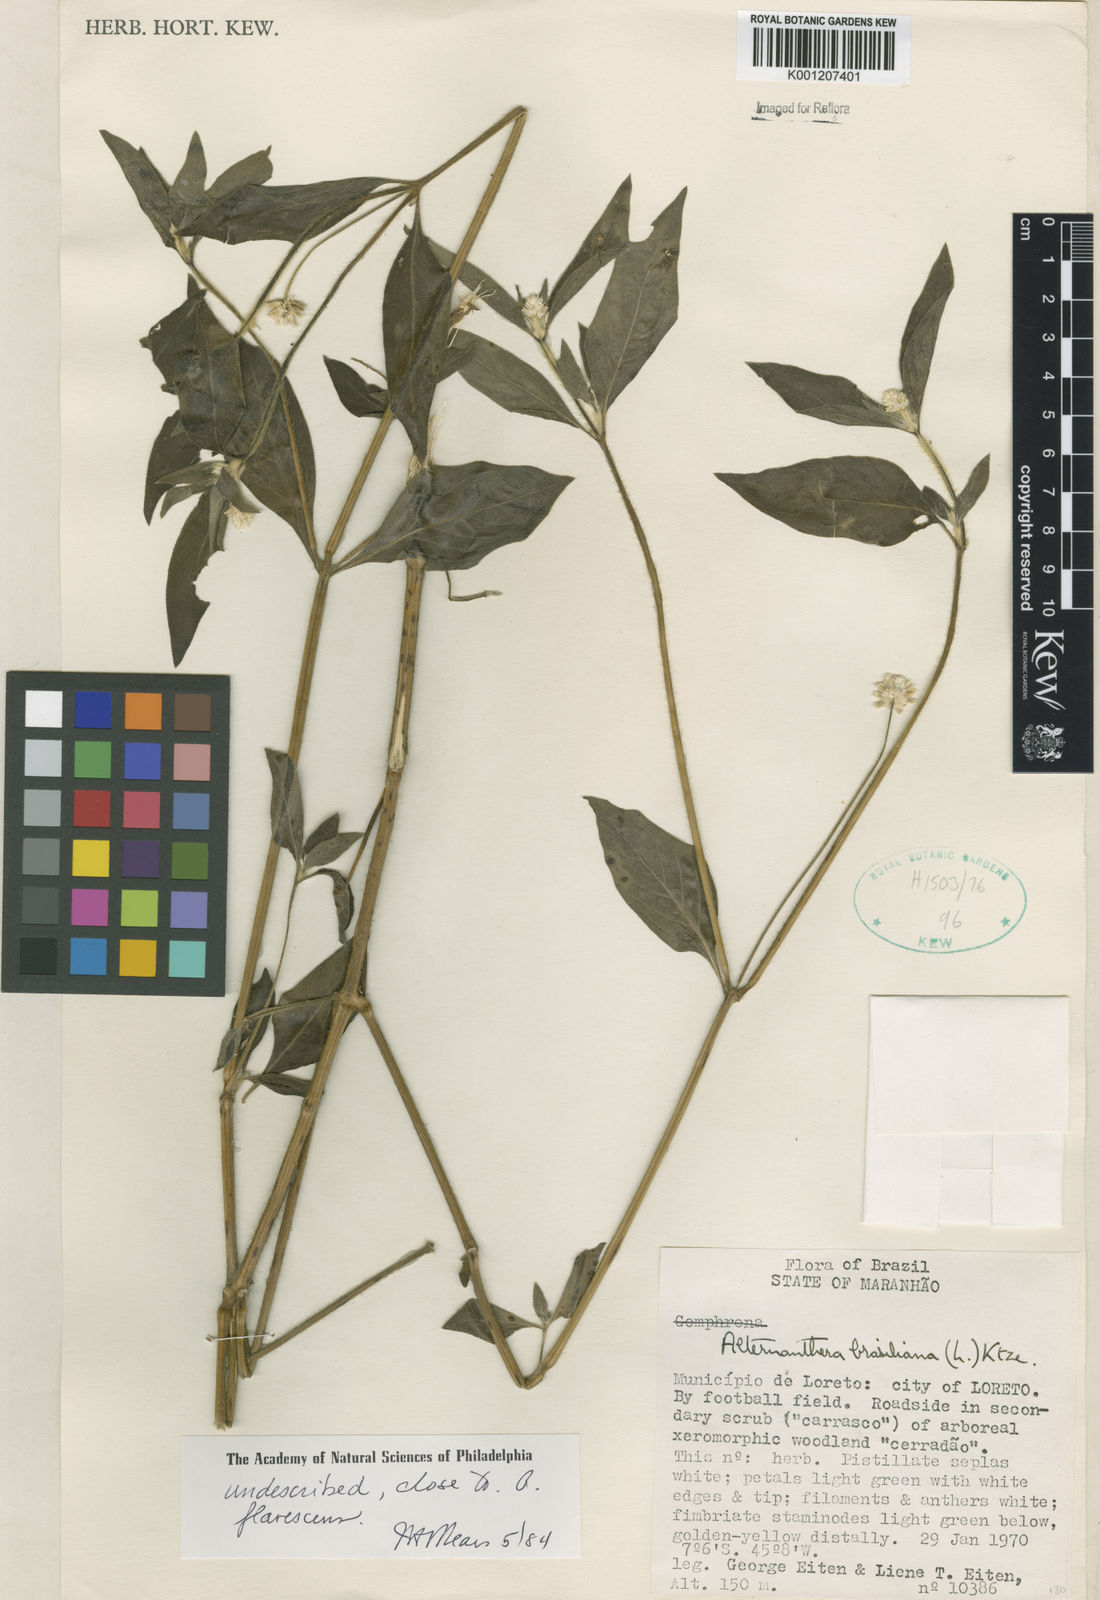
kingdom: Plantae
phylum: Tracheophyta
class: Magnoliopsida
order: Caryophyllales
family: Amaranthaceae
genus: Alternanthera
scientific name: Alternanthera
